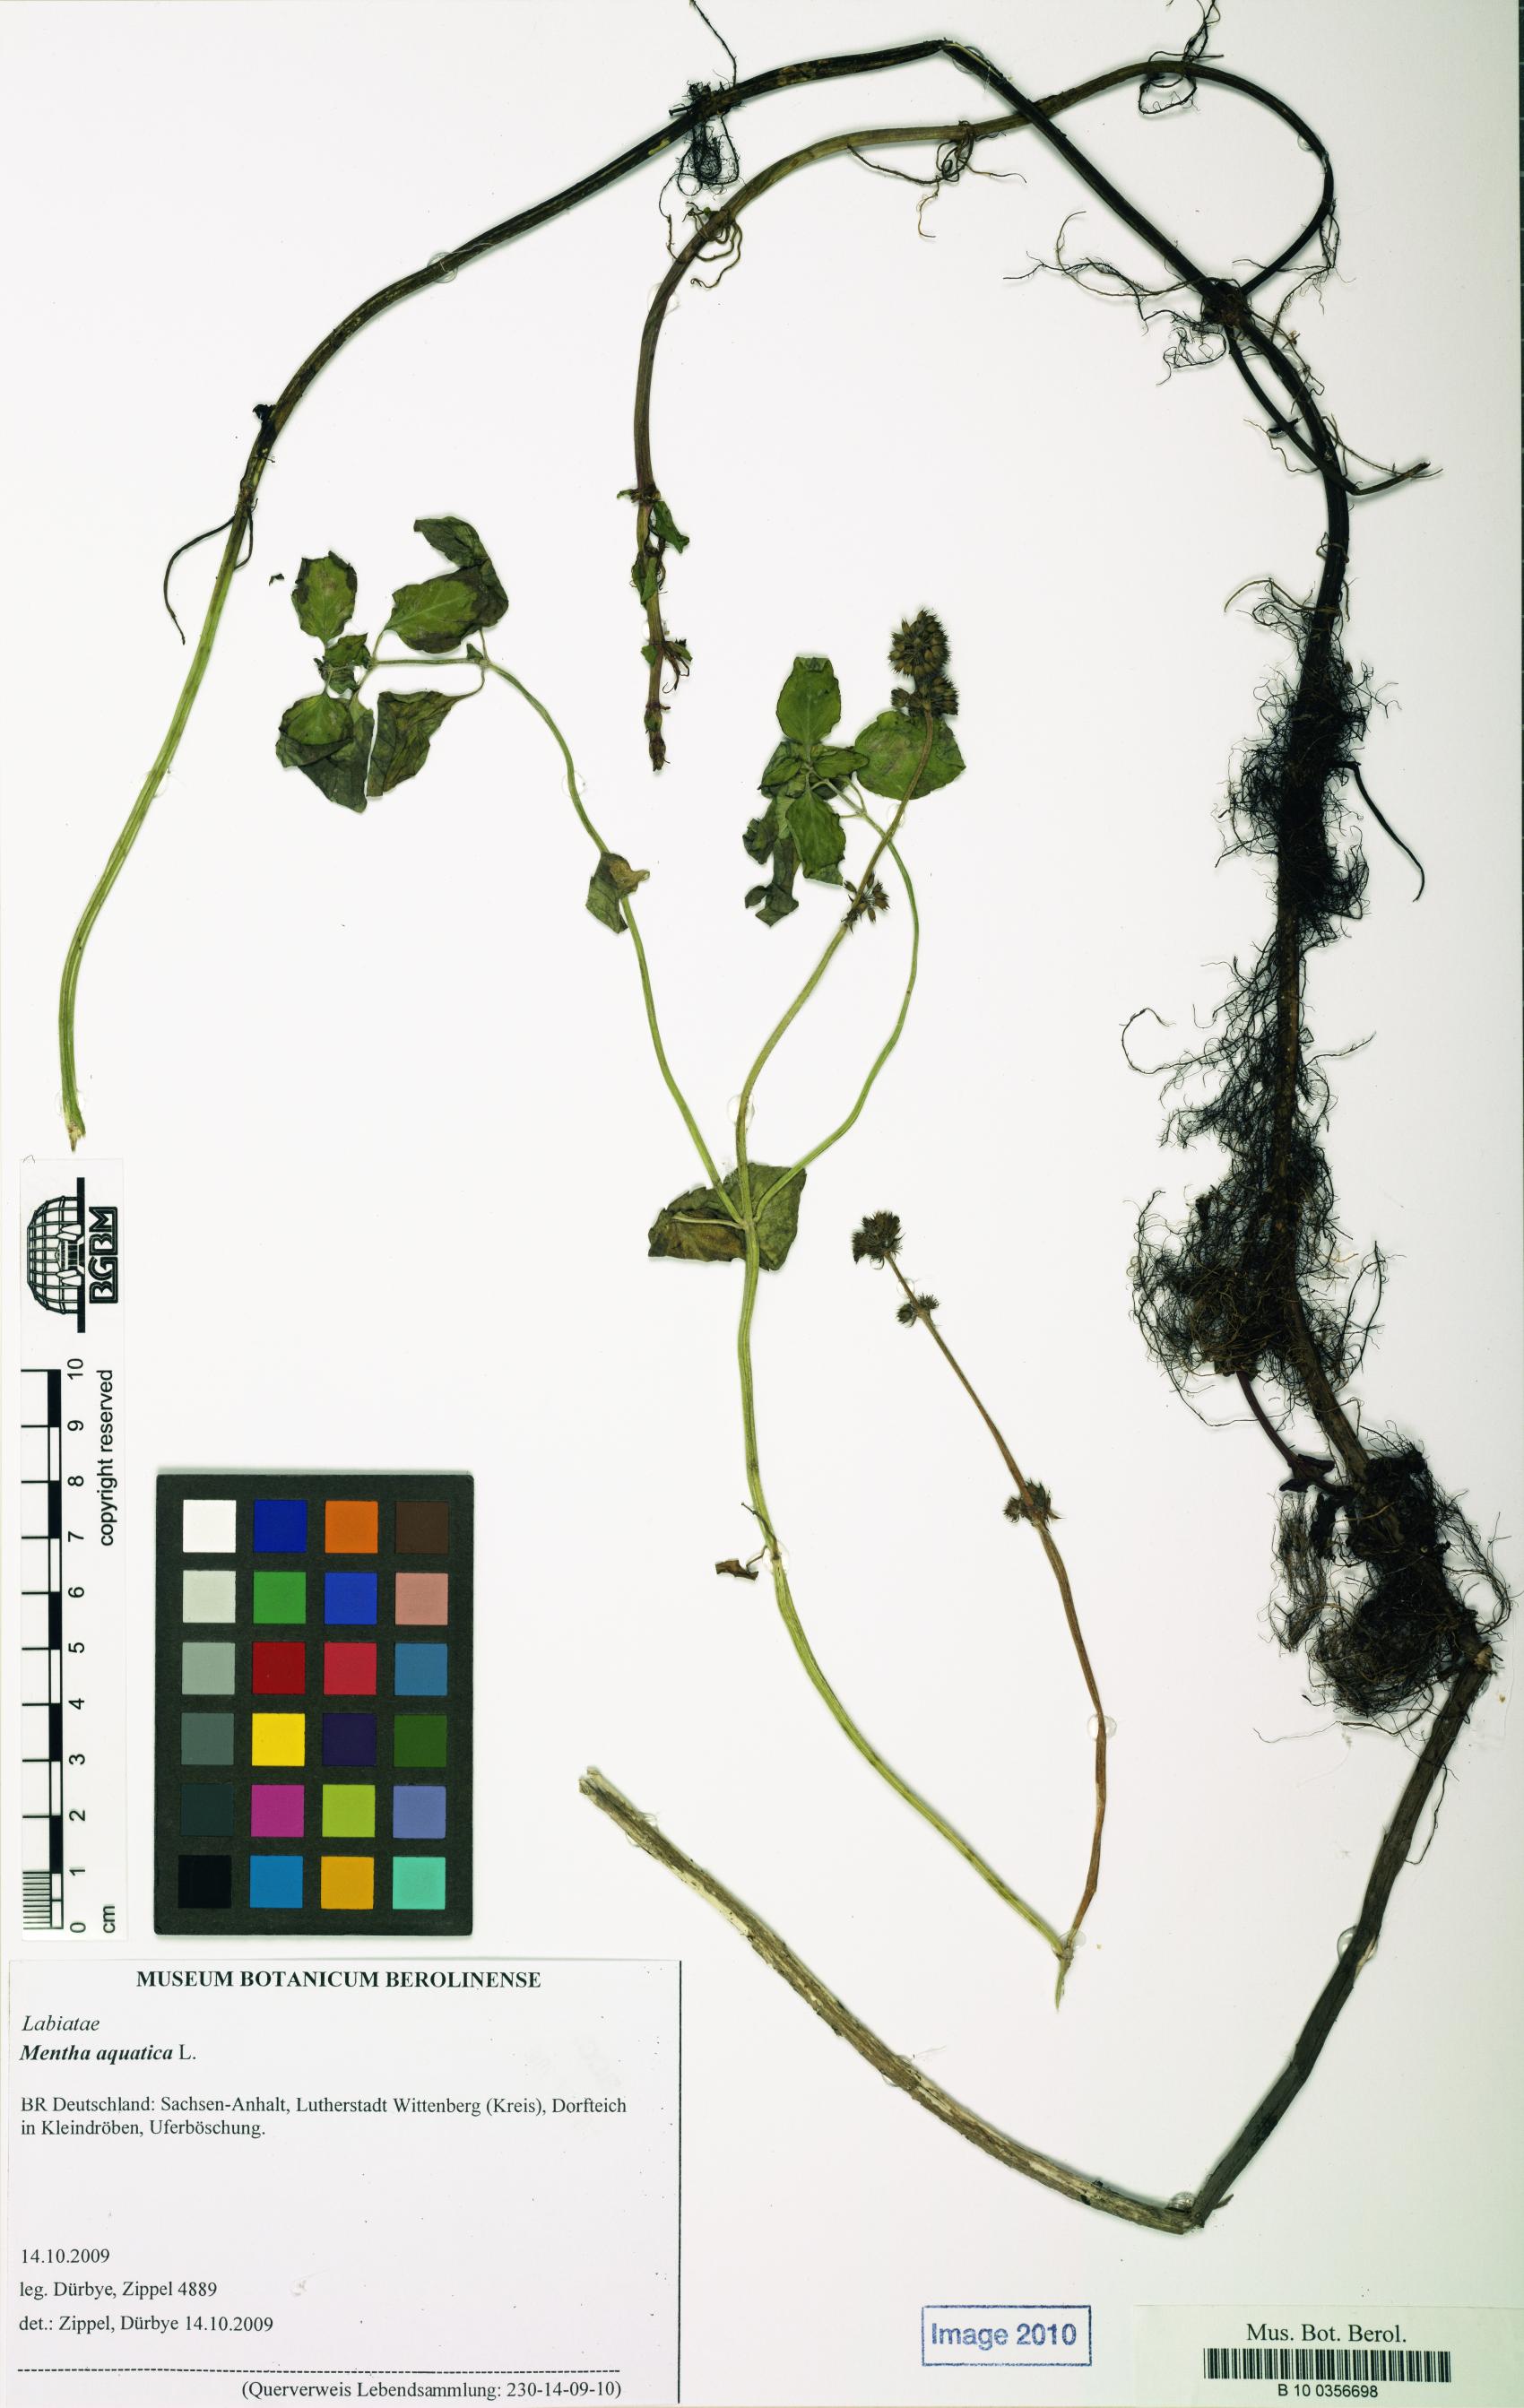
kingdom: Plantae
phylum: Tracheophyta
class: Magnoliopsida
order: Lamiales
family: Lamiaceae
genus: Mentha
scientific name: Mentha aquatica
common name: Water mint
